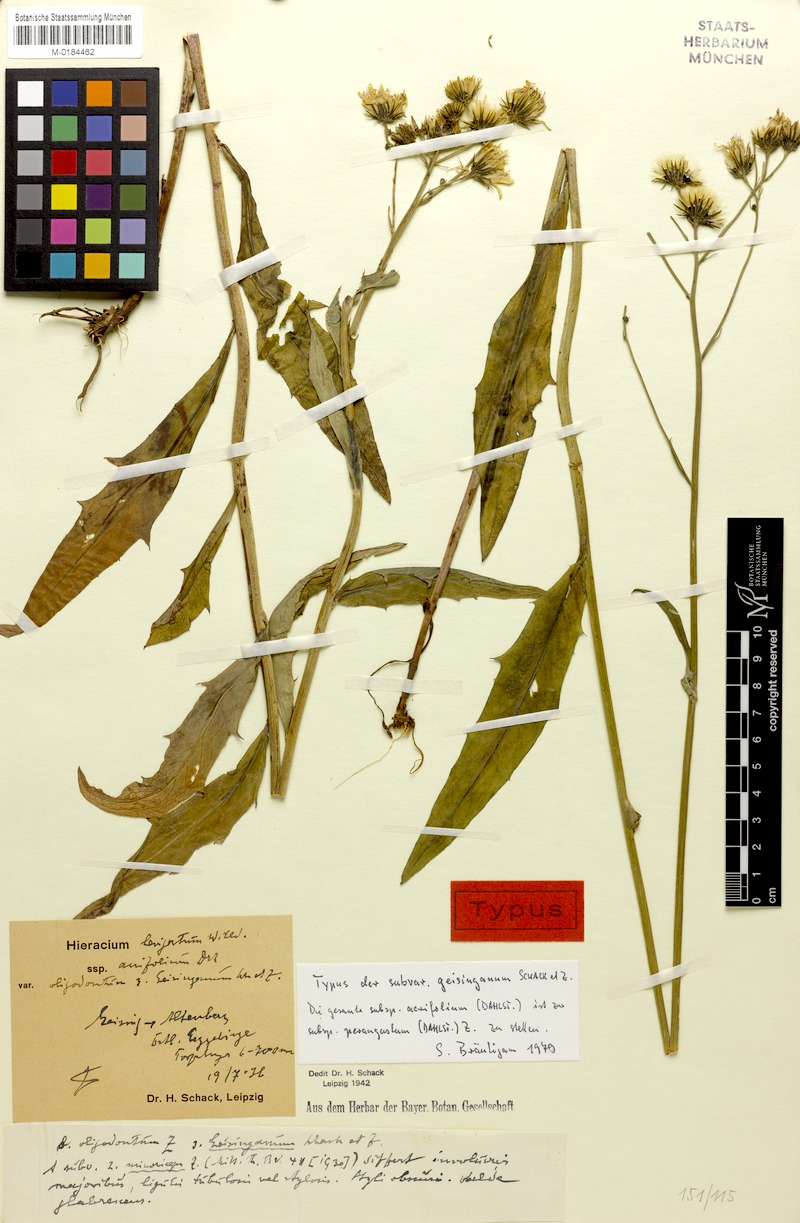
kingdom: Plantae
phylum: Tracheophyta
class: Magnoliopsida
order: Asterales
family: Asteraceae
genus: Hieracium
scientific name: Hieracium laevigatum
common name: Smooth hawkweed
